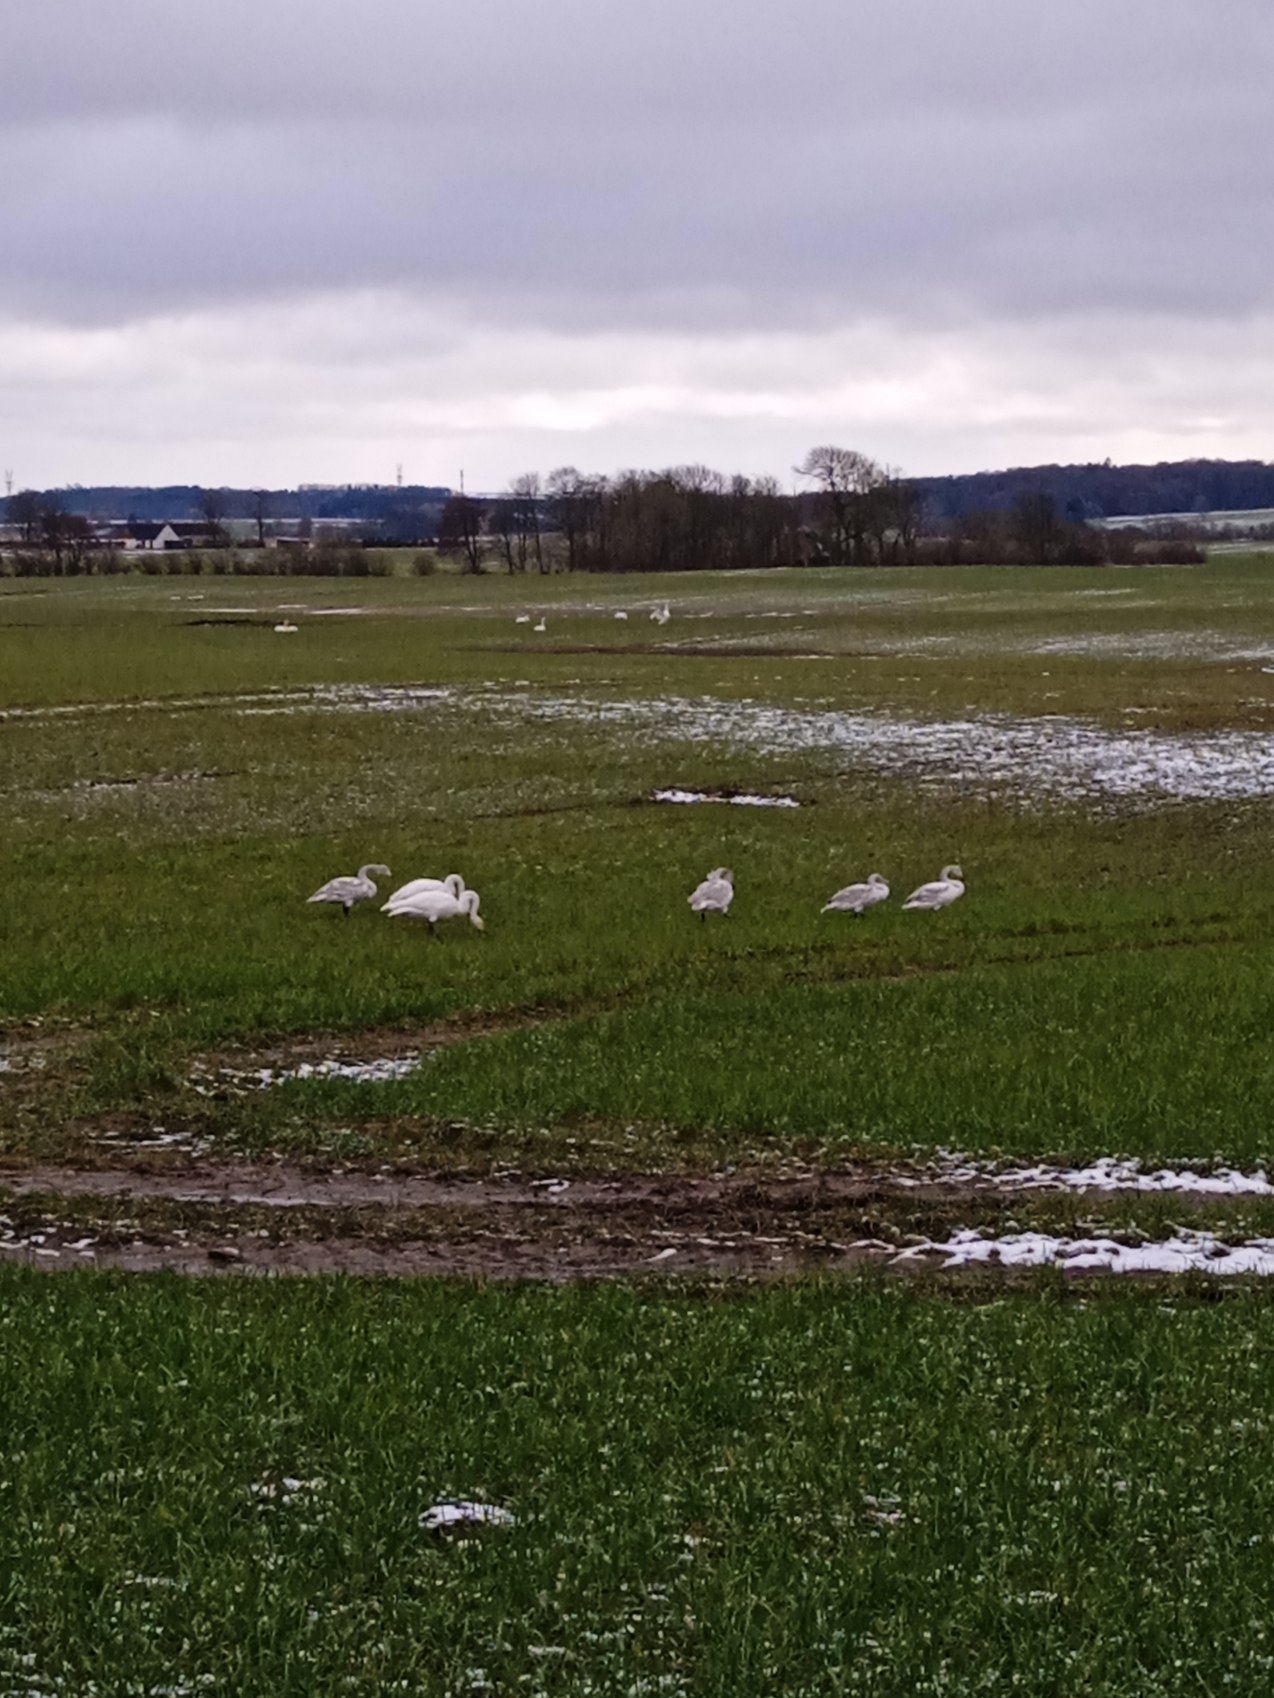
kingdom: Animalia
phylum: Chordata
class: Aves
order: Anseriformes
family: Anatidae
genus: Cygnus
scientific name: Cygnus cygnus
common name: Sangsvane
